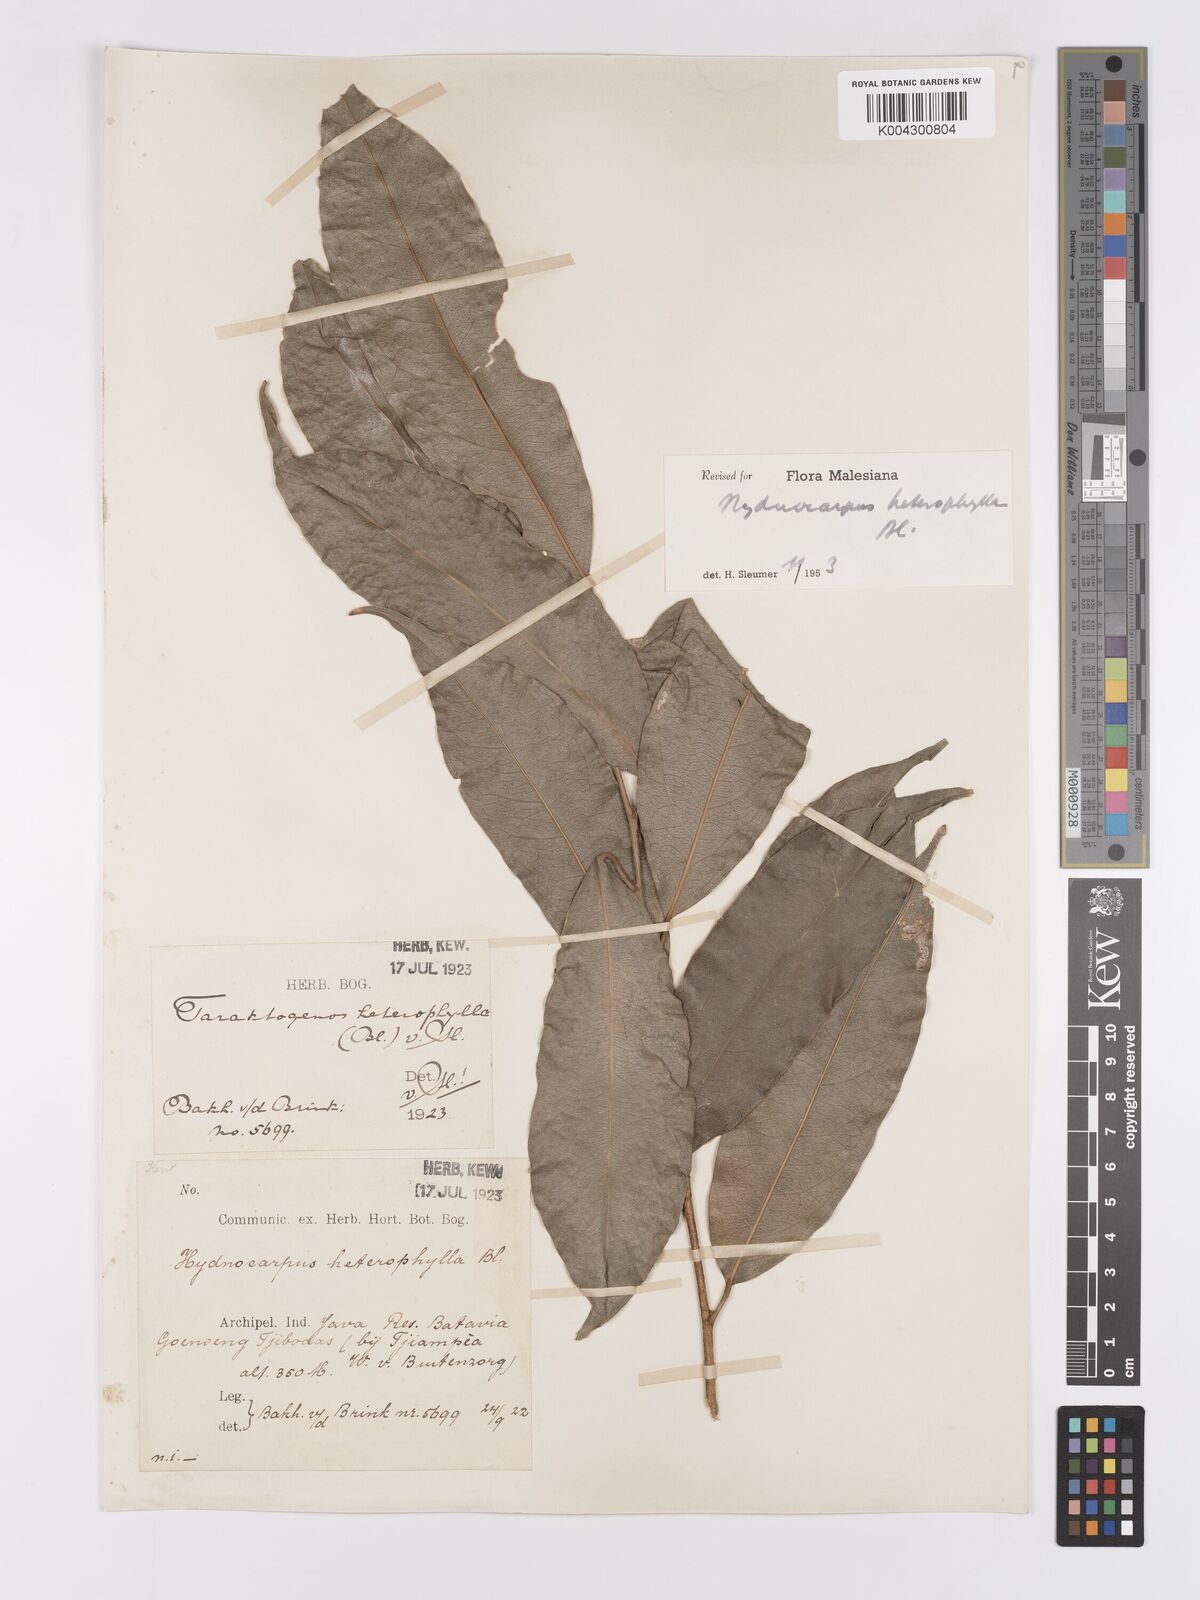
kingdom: Plantae
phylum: Tracheophyta
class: Magnoliopsida
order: Malpighiales
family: Achariaceae
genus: Hydnocarpus
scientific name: Hydnocarpus heterophyllus
